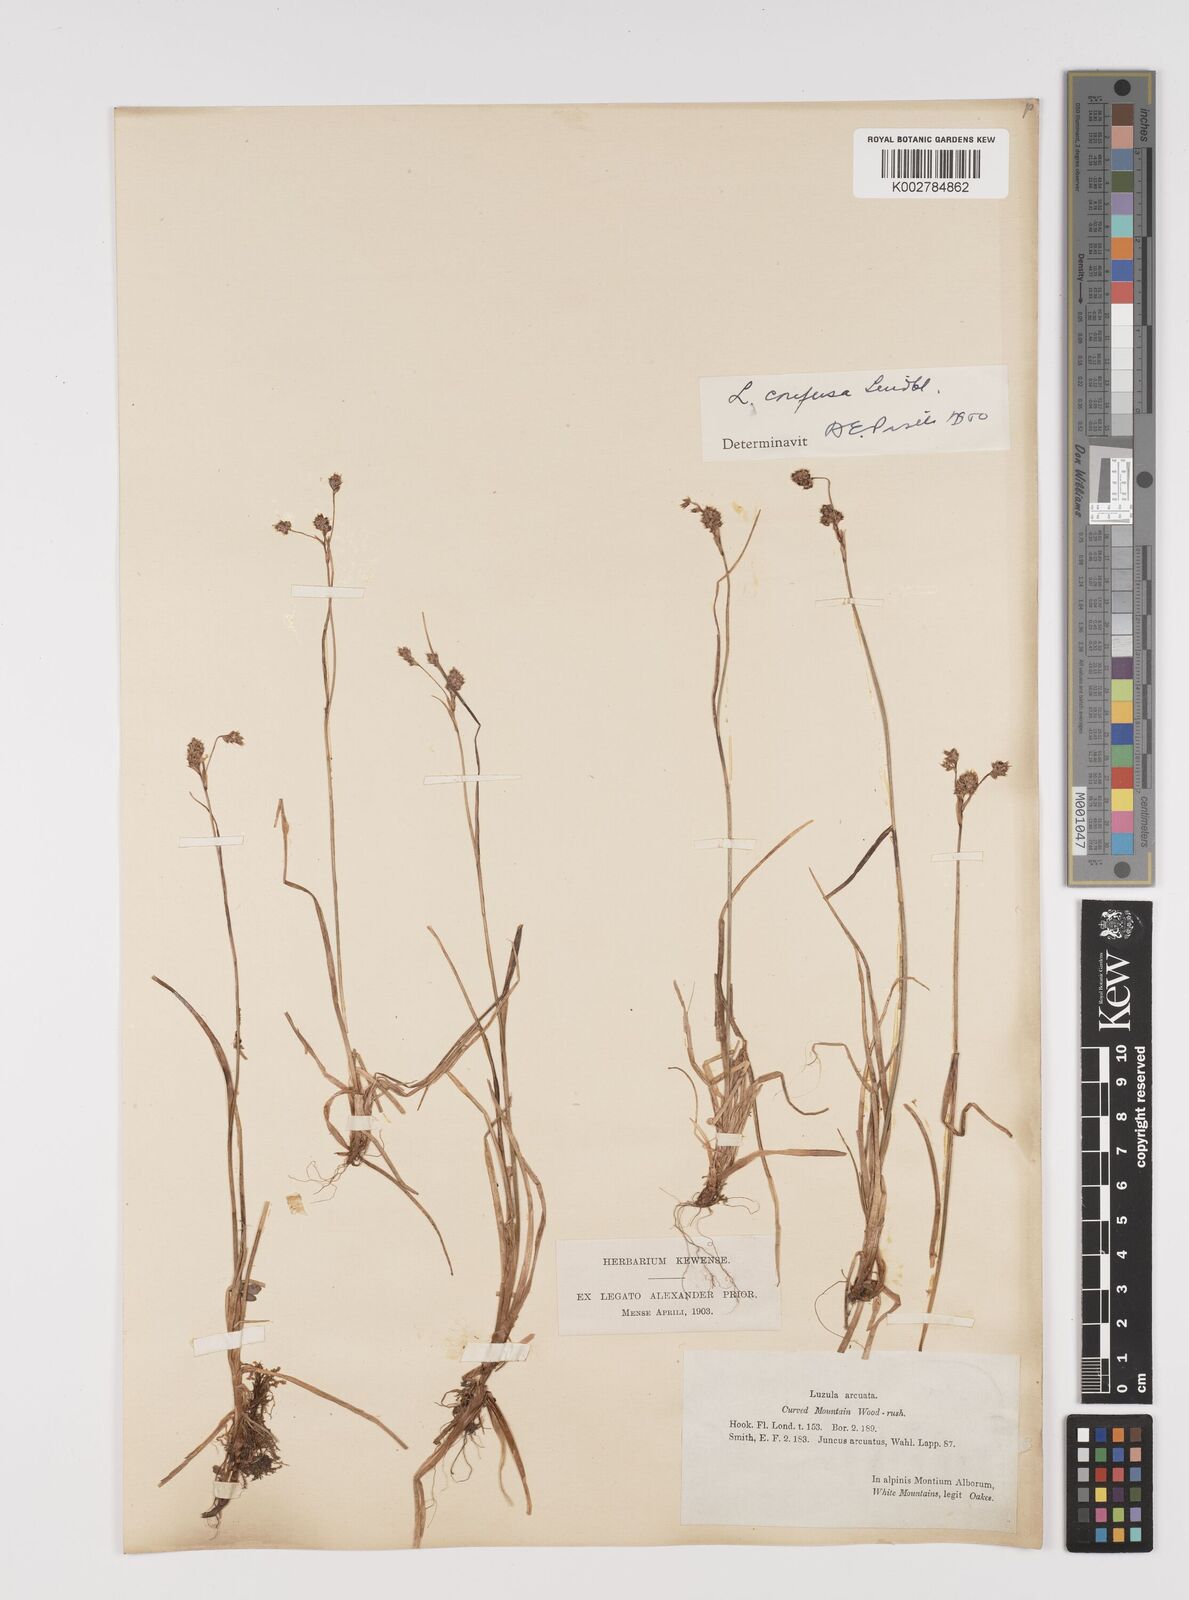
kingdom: Plantae
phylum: Tracheophyta
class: Liliopsida
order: Poales
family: Juncaceae
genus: Luzula
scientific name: Luzula confusa
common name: Northern wood rush
